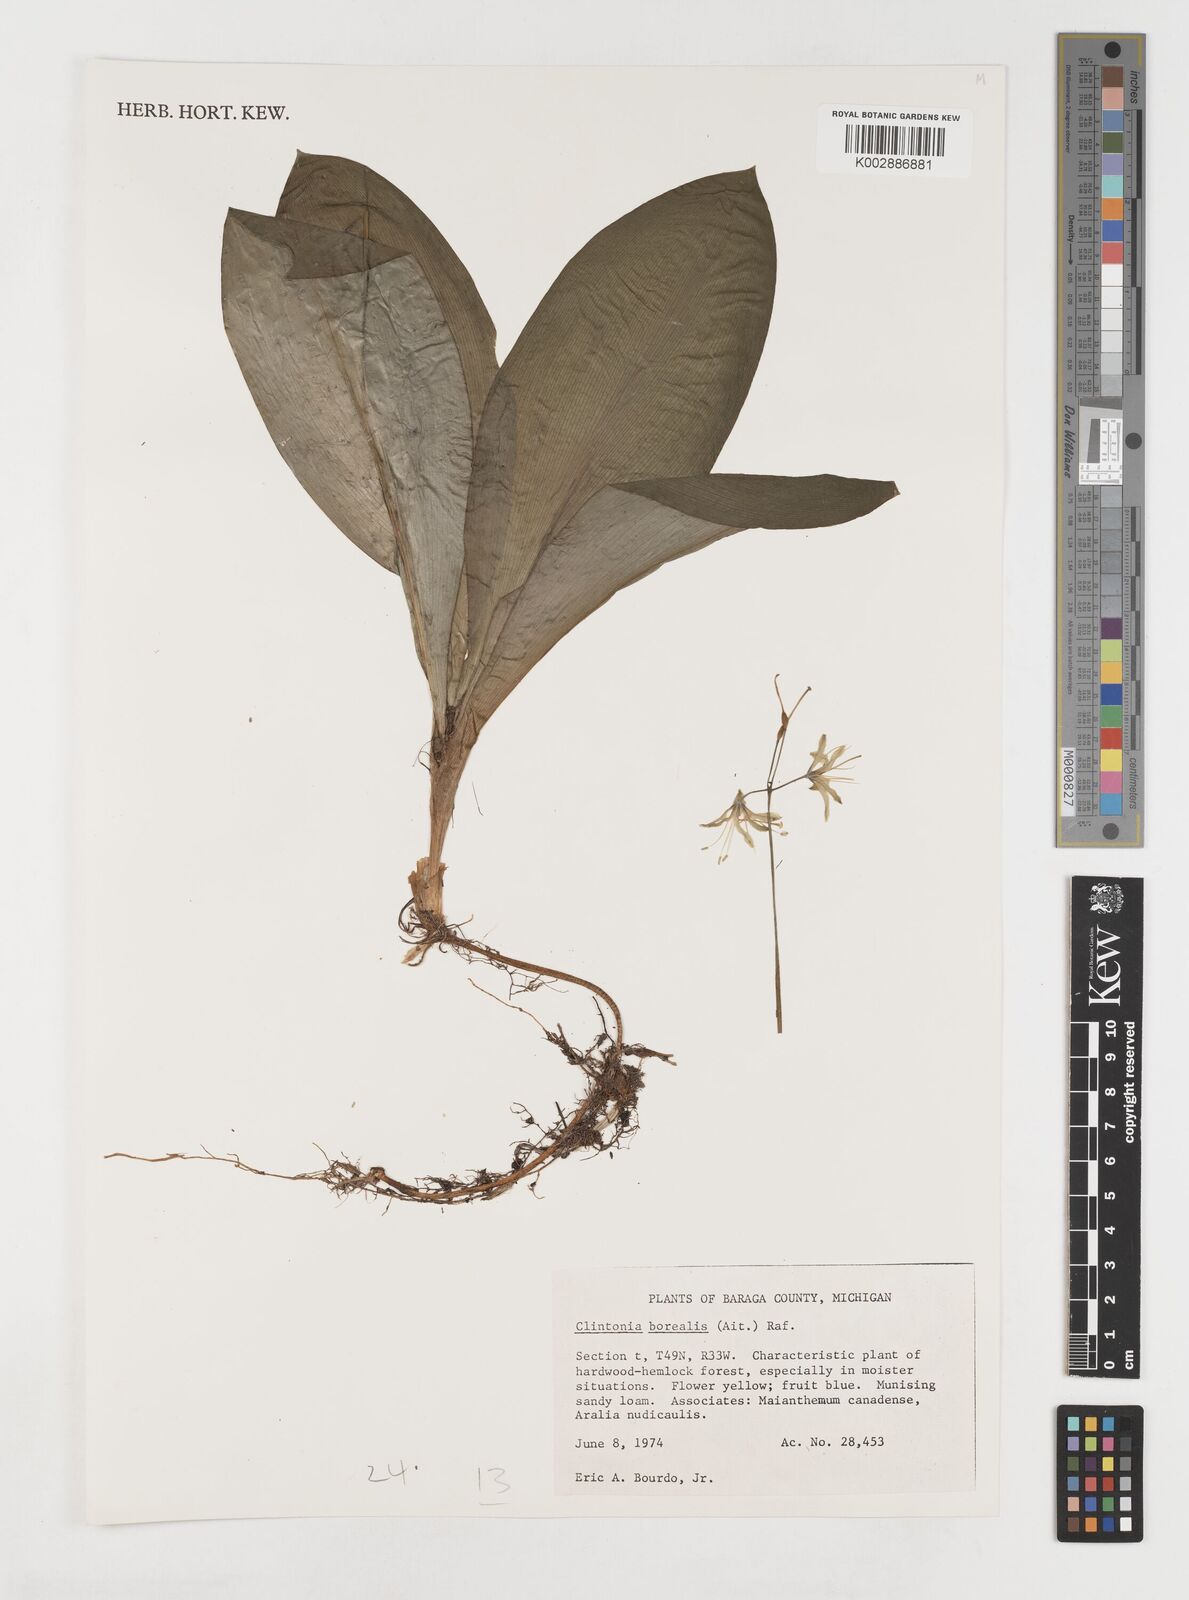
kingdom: Plantae
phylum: Tracheophyta
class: Liliopsida
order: Liliales
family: Liliaceae
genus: Clintonia
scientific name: Clintonia borealis
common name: Yellow clintonia
